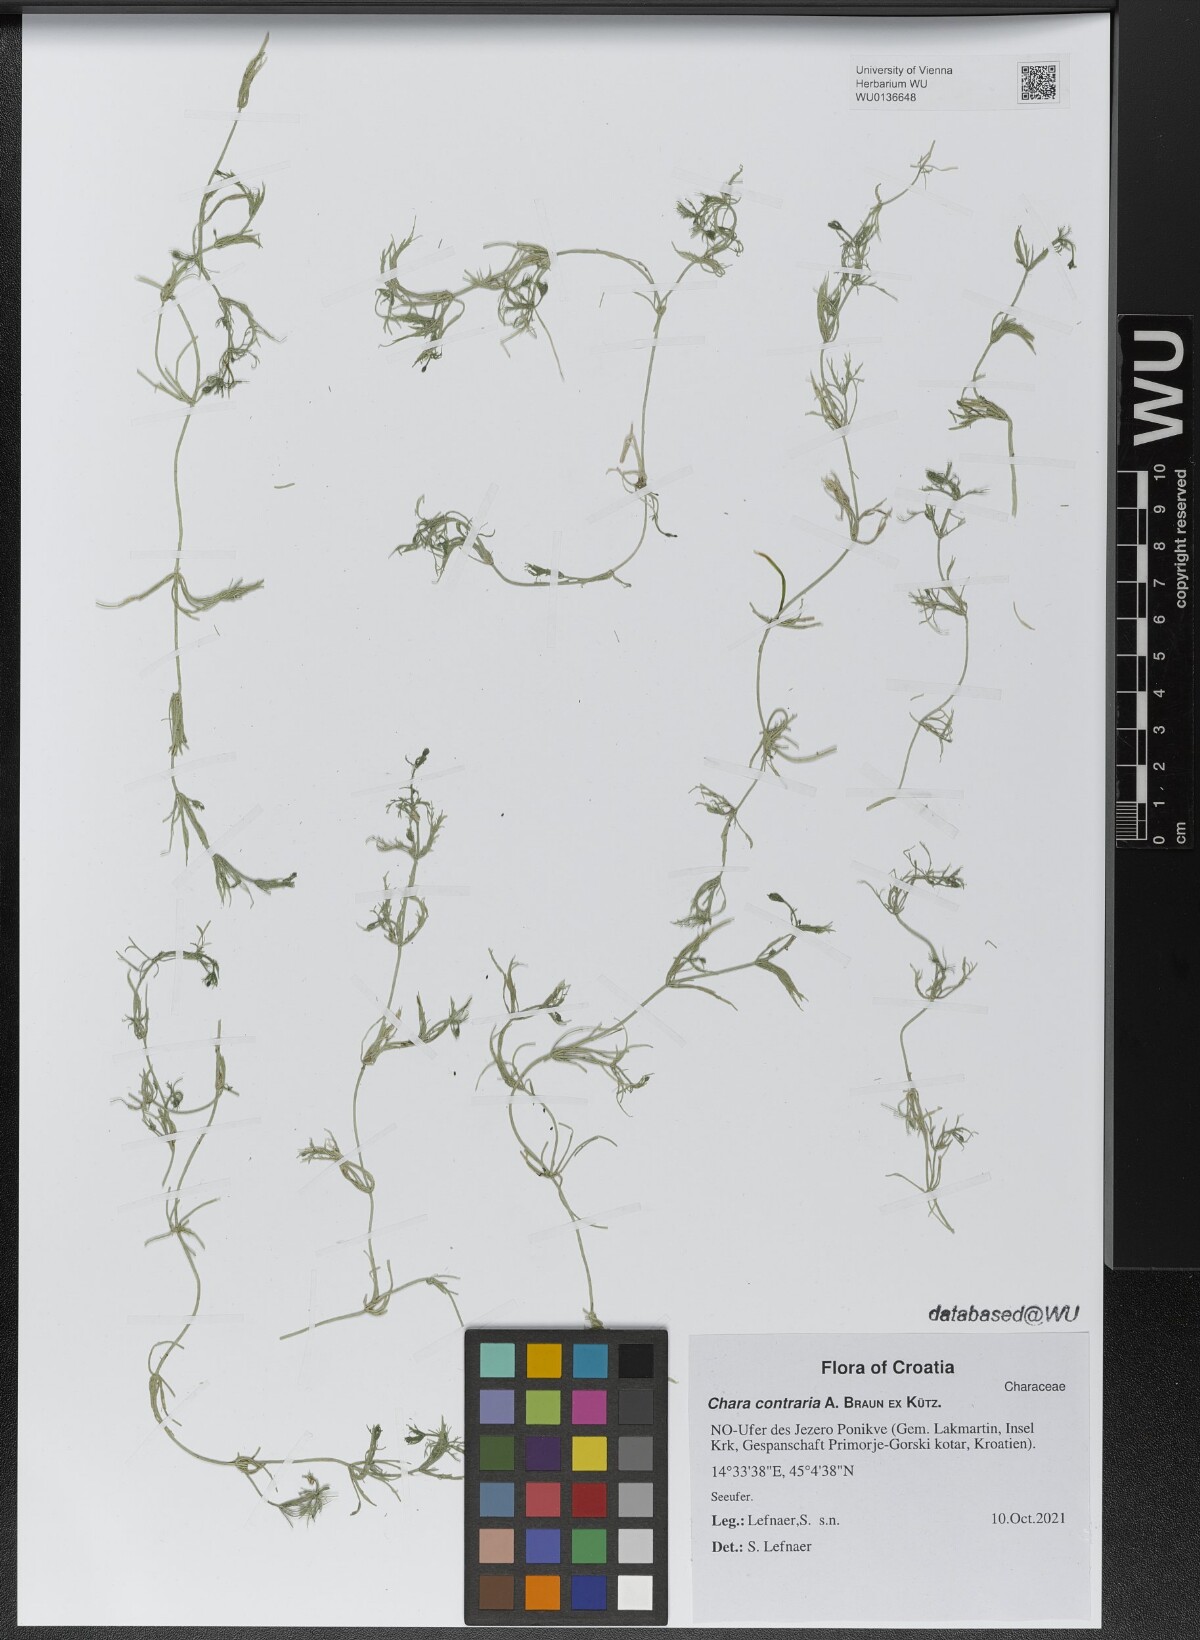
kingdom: Plantae
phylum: Charophyta
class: Charophyceae
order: Charales
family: Characeae
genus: Chara
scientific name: Chara contraria
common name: Opposite stonewort
